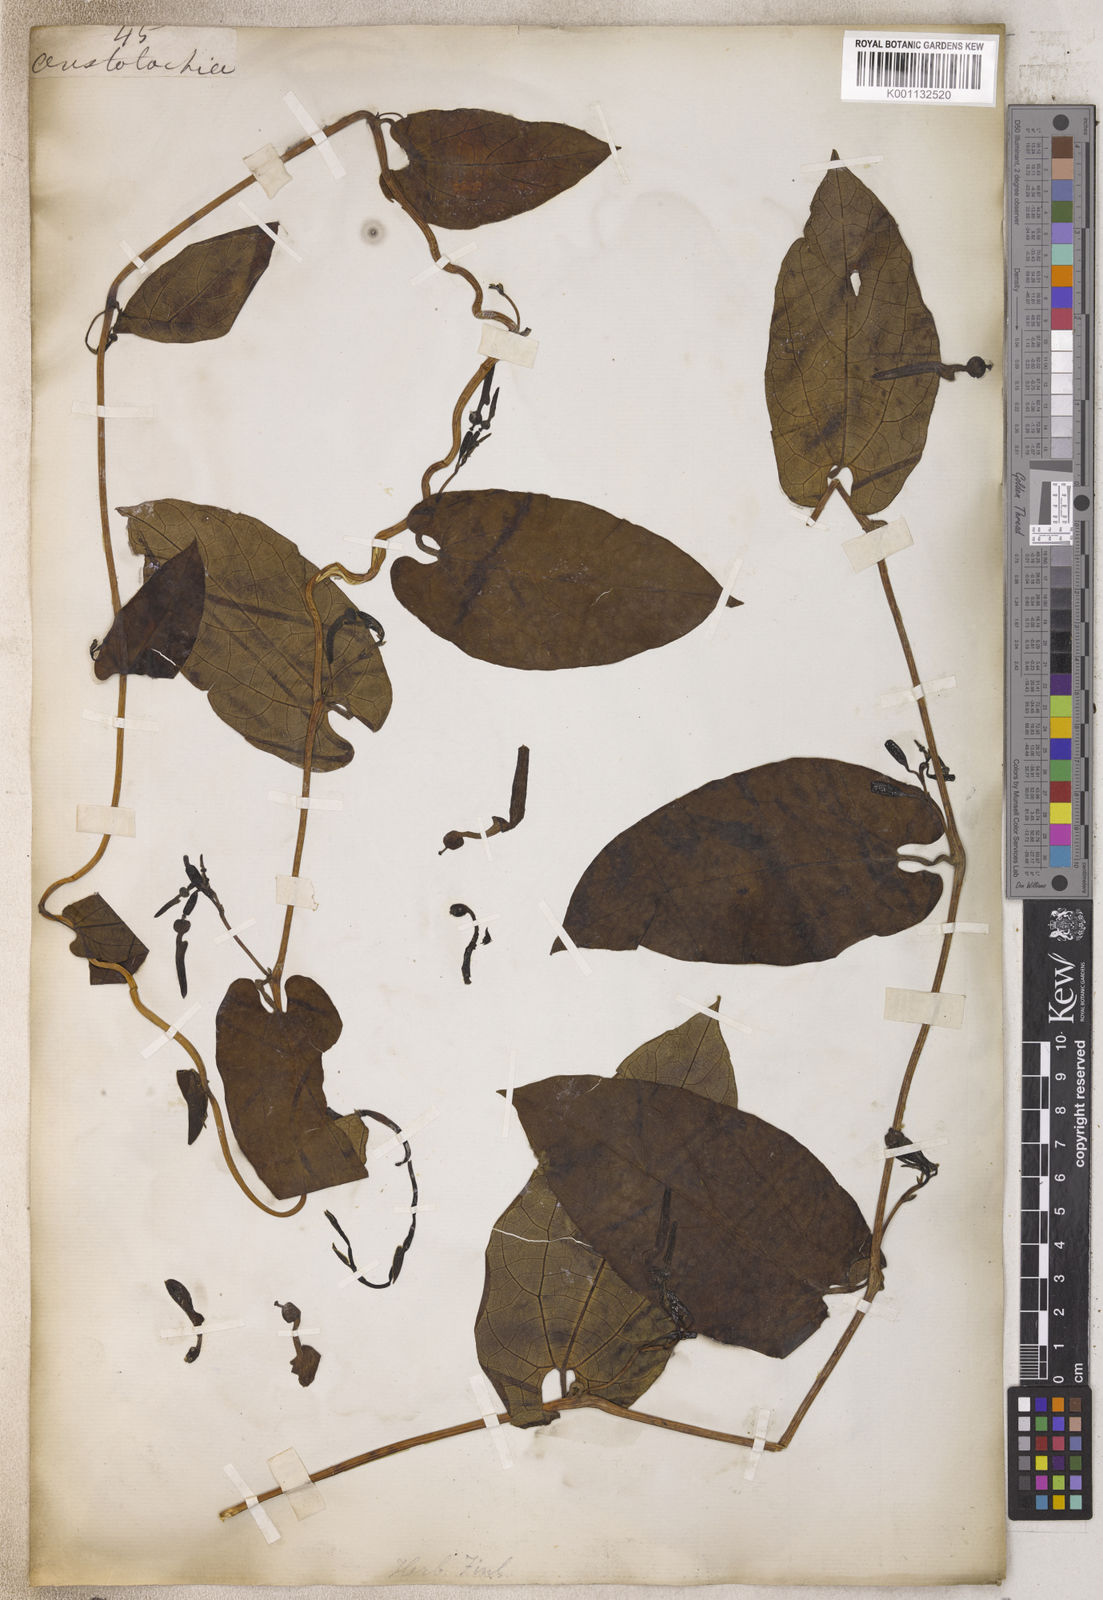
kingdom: Plantae
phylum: Tracheophyta
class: Magnoliopsida
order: Piperales
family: Aristolochiaceae
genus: Aristolochia
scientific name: Aristolochia
